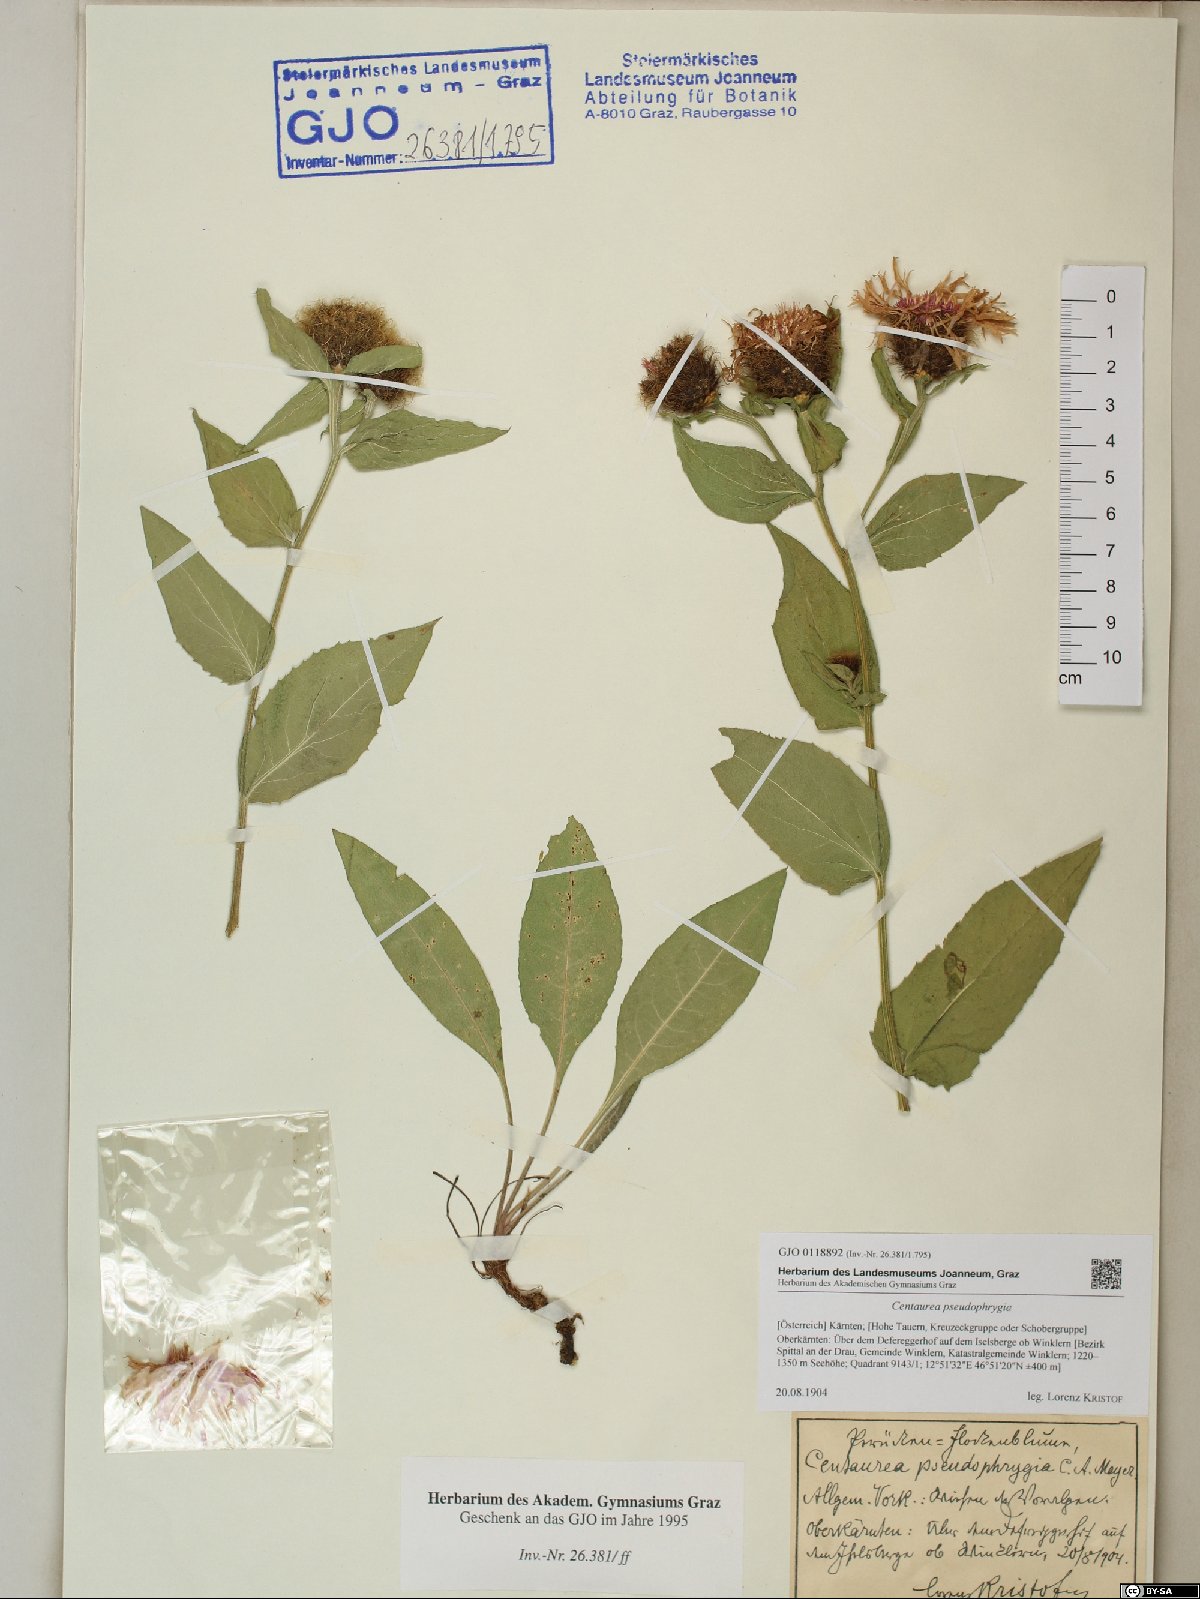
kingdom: Plantae
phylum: Tracheophyta
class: Magnoliopsida
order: Asterales
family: Asteraceae
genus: Centaurea
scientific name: Centaurea pseudophrygia
